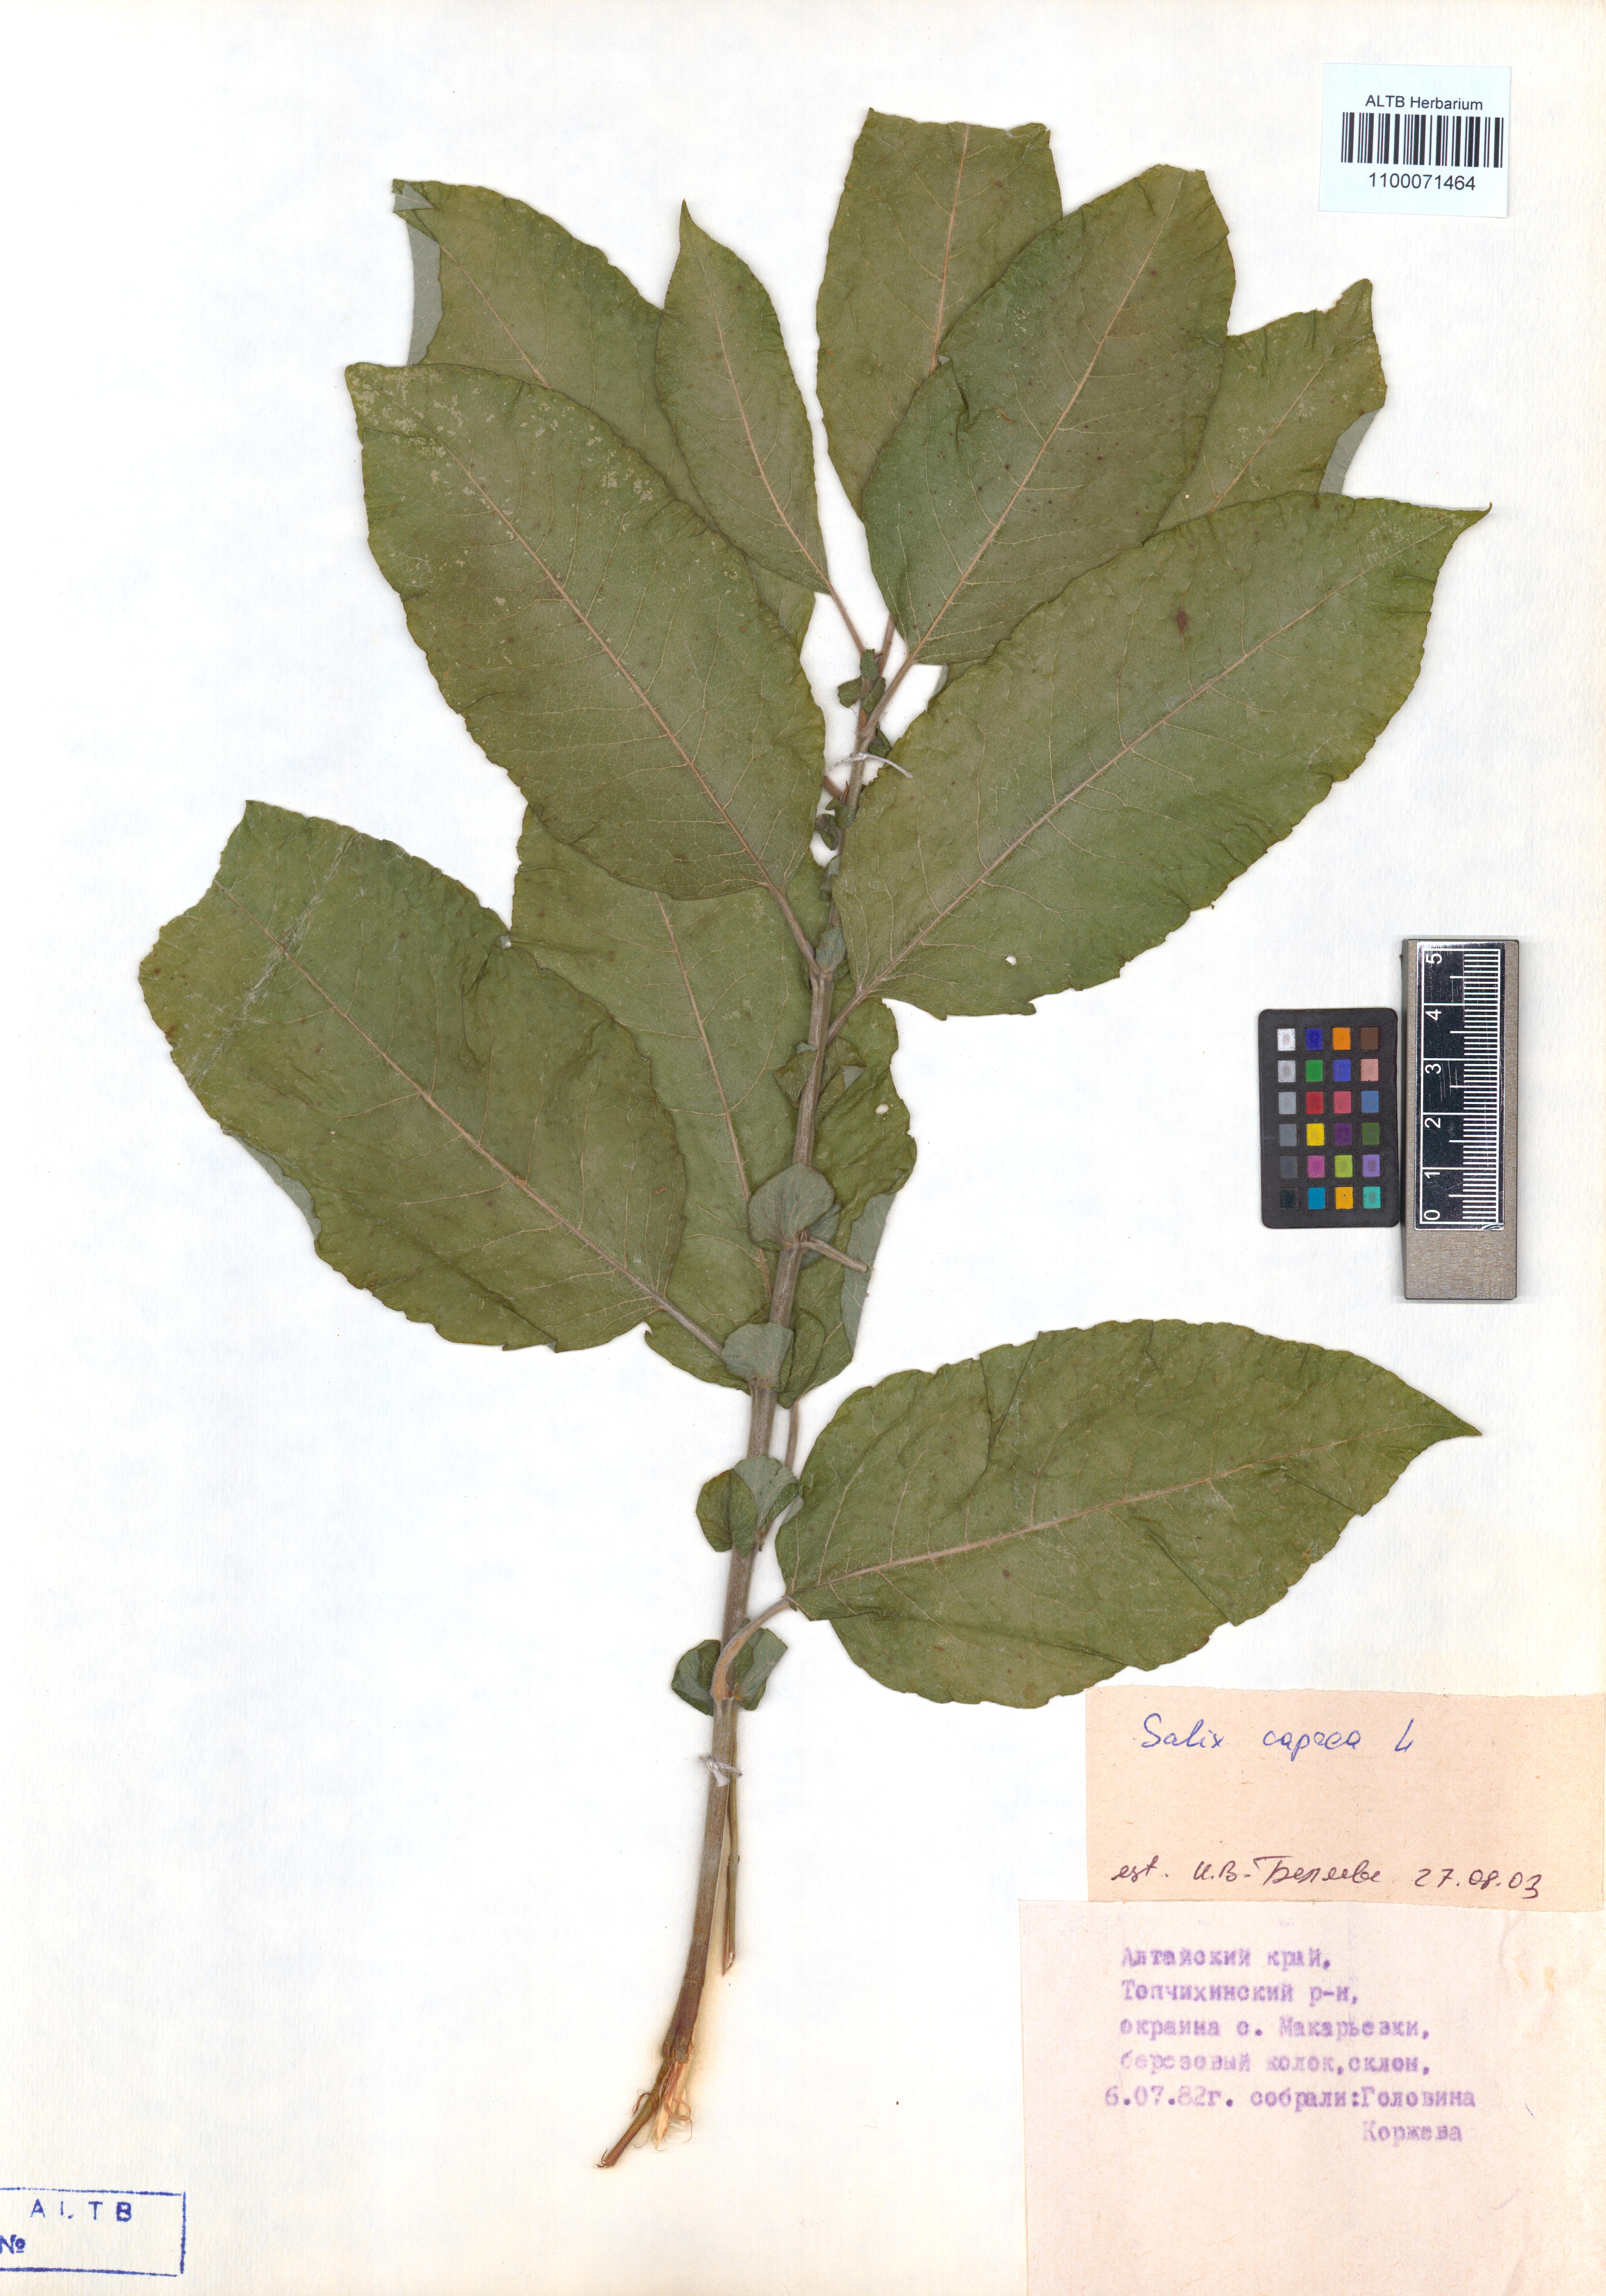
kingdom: Plantae
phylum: Tracheophyta
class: Magnoliopsida
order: Malpighiales
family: Salicaceae
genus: Salix
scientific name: Salix caprea
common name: Goat willow
